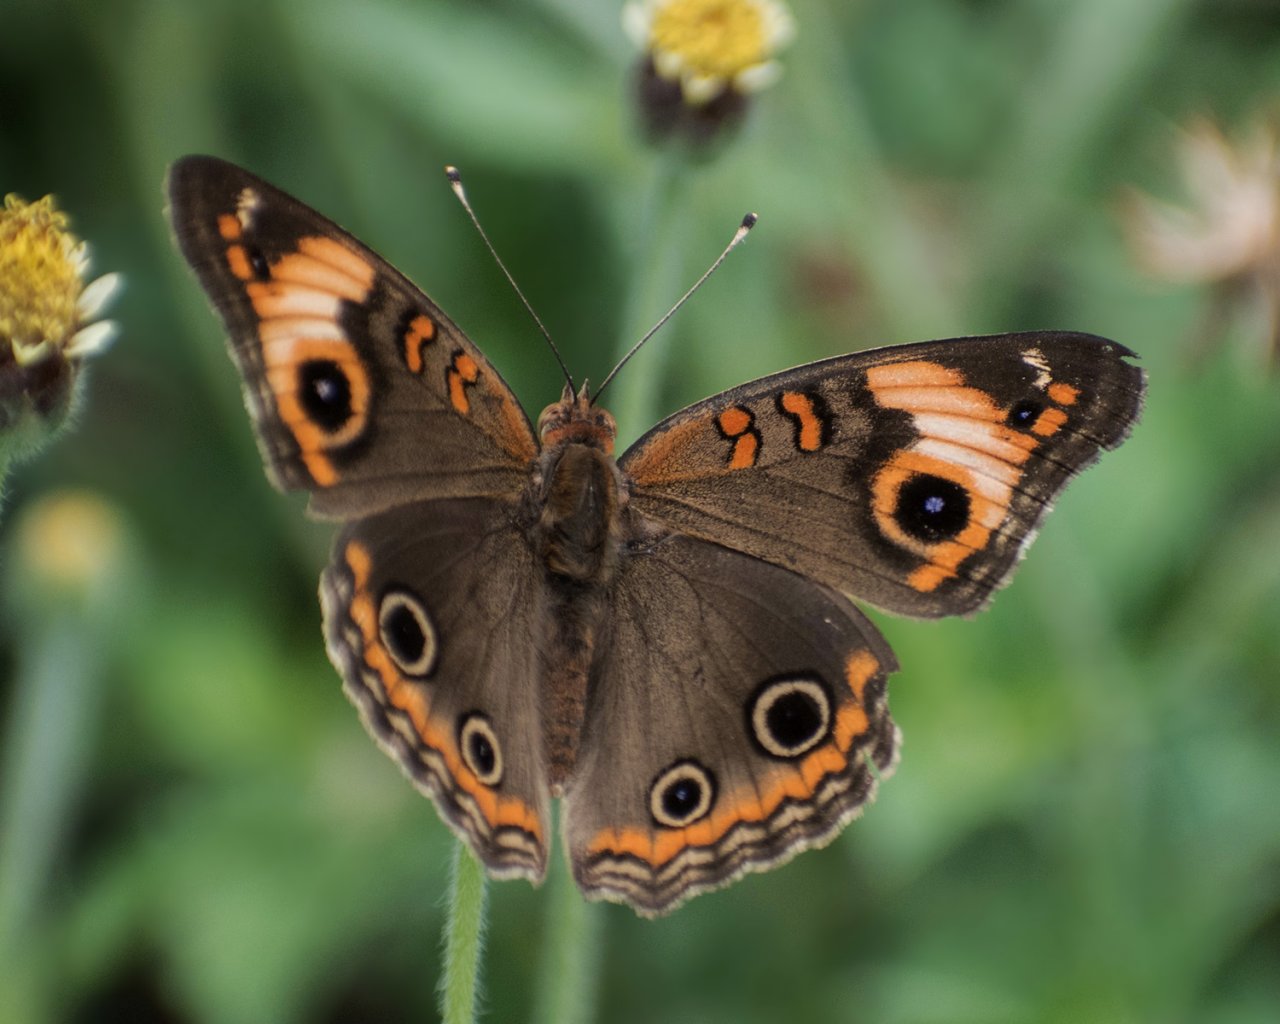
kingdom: Animalia
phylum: Arthropoda
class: Insecta
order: Lepidoptera
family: Nymphalidae
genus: Junonia
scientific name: Junonia evarete
